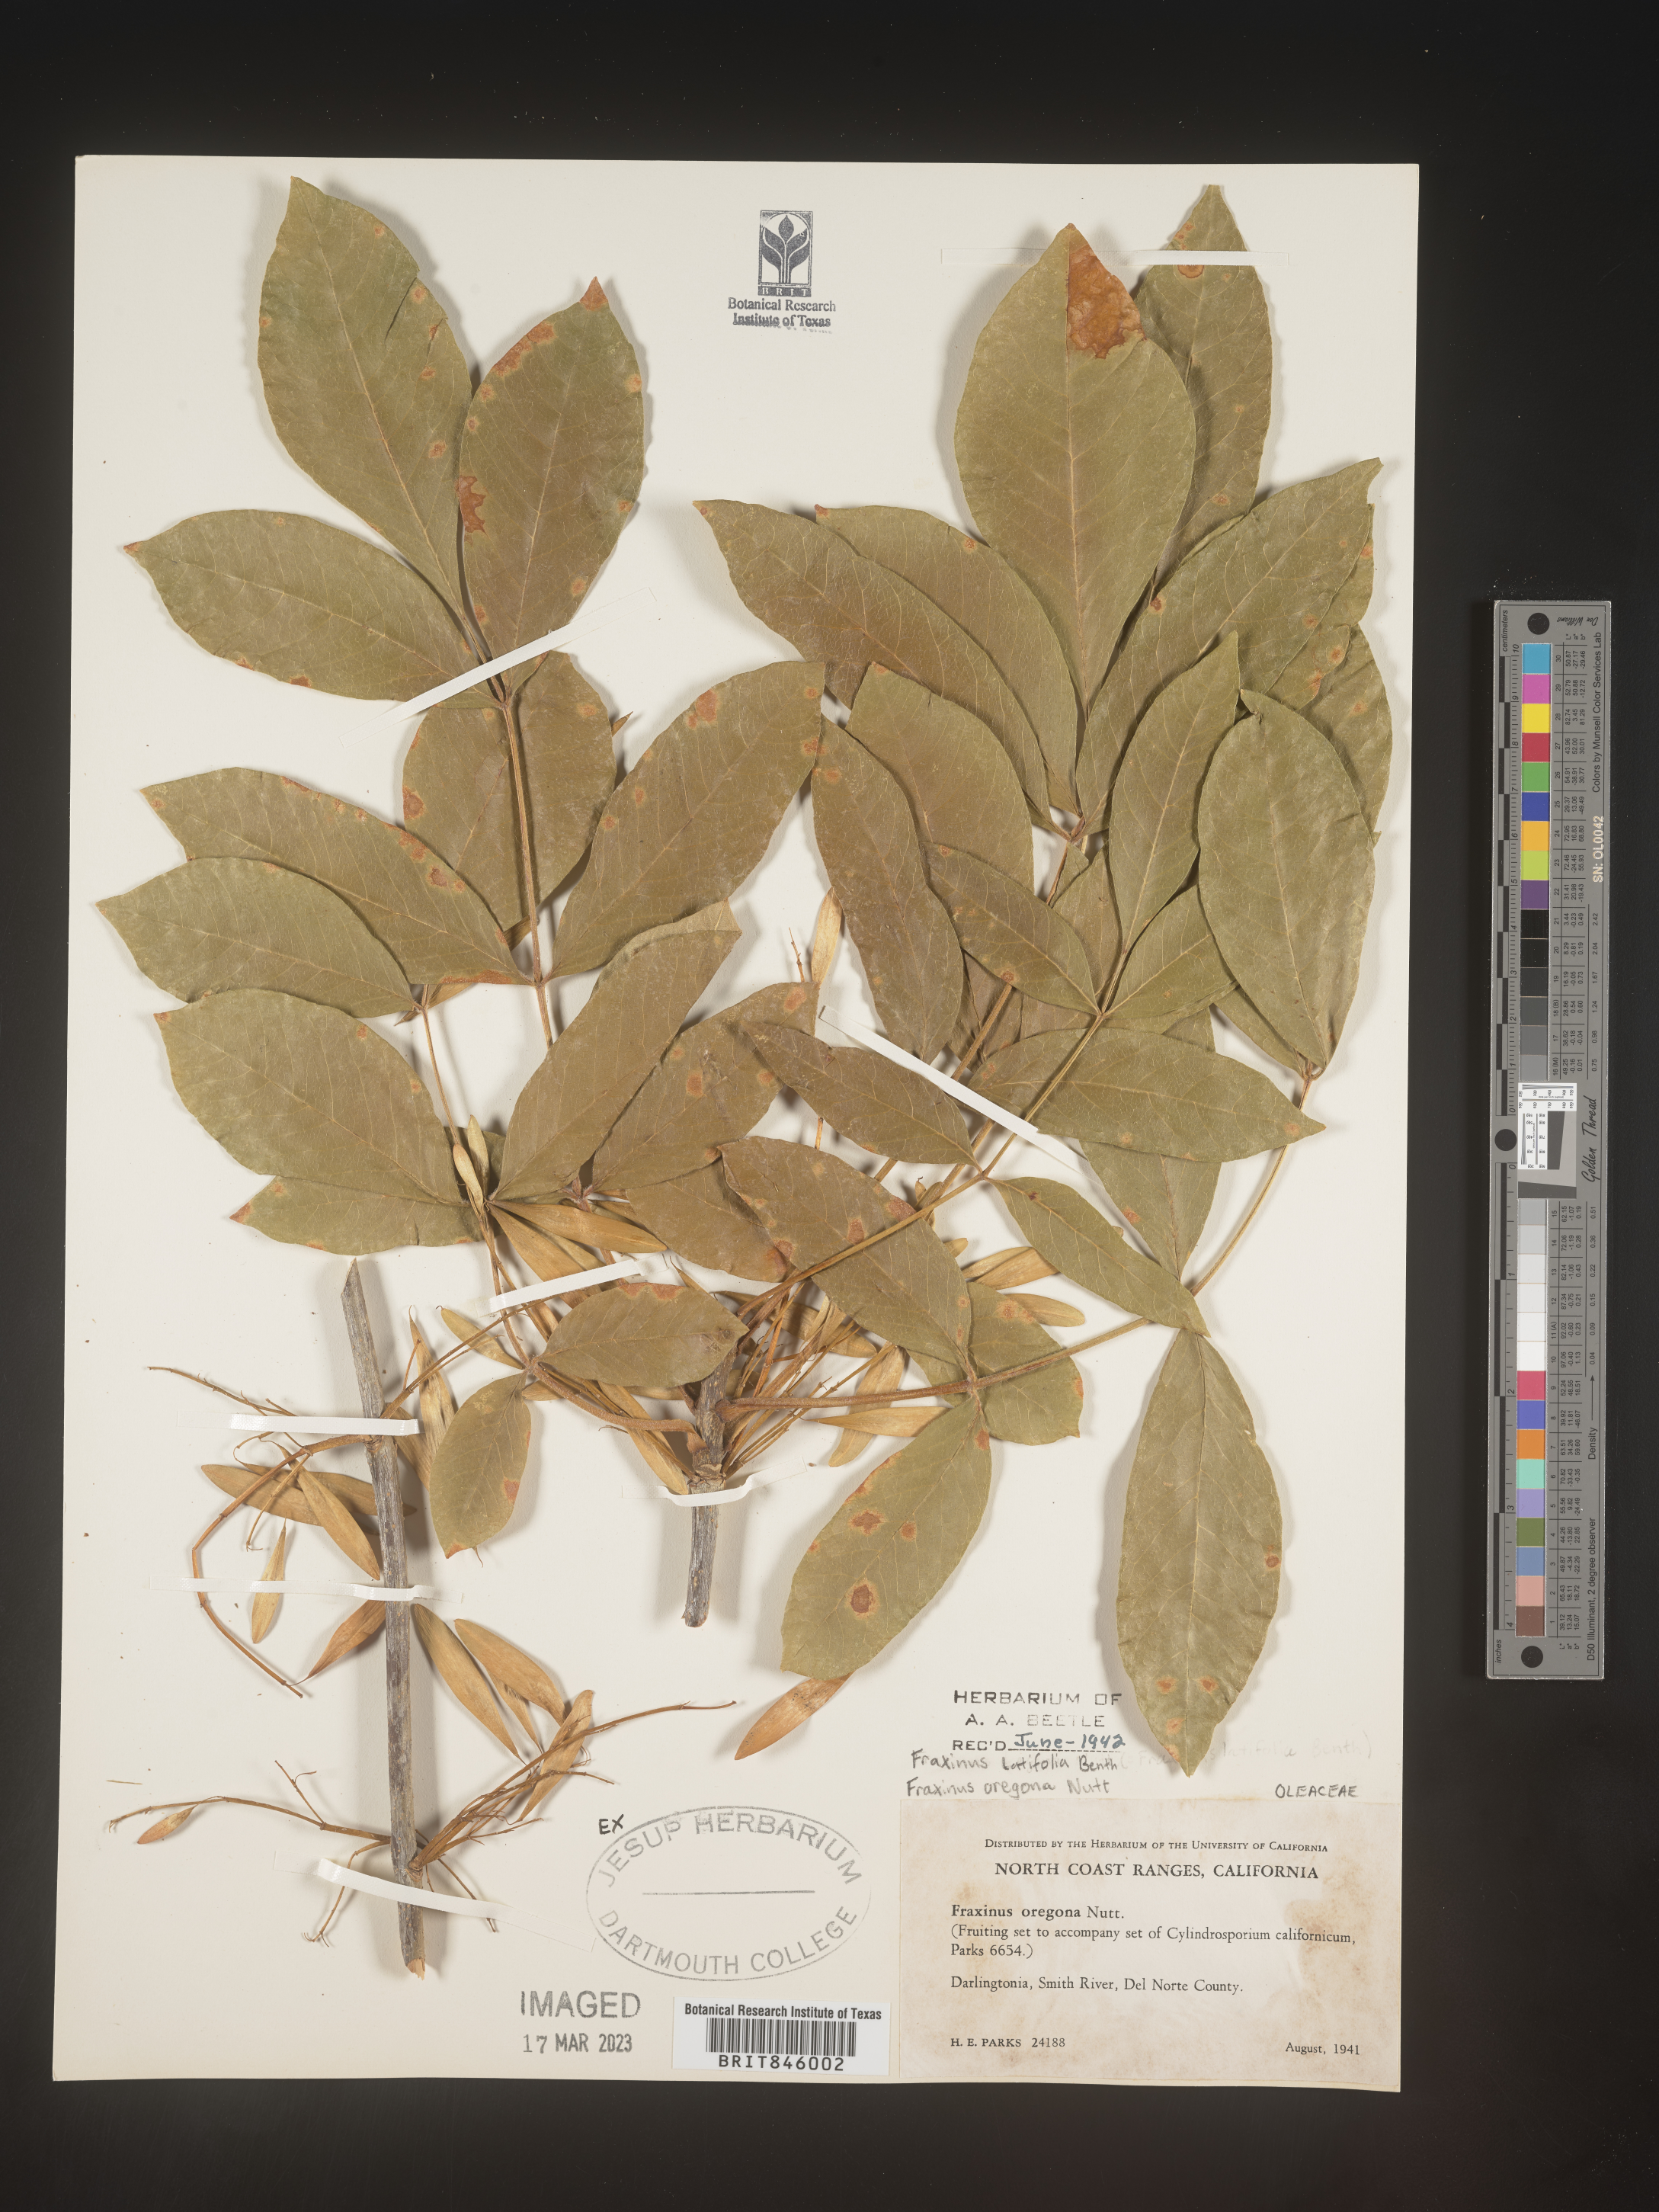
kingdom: Plantae
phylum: Tracheophyta
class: Magnoliopsida
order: Lamiales
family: Oleaceae
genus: Fraxinus
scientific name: Fraxinus latifolia
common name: Oregon ash
